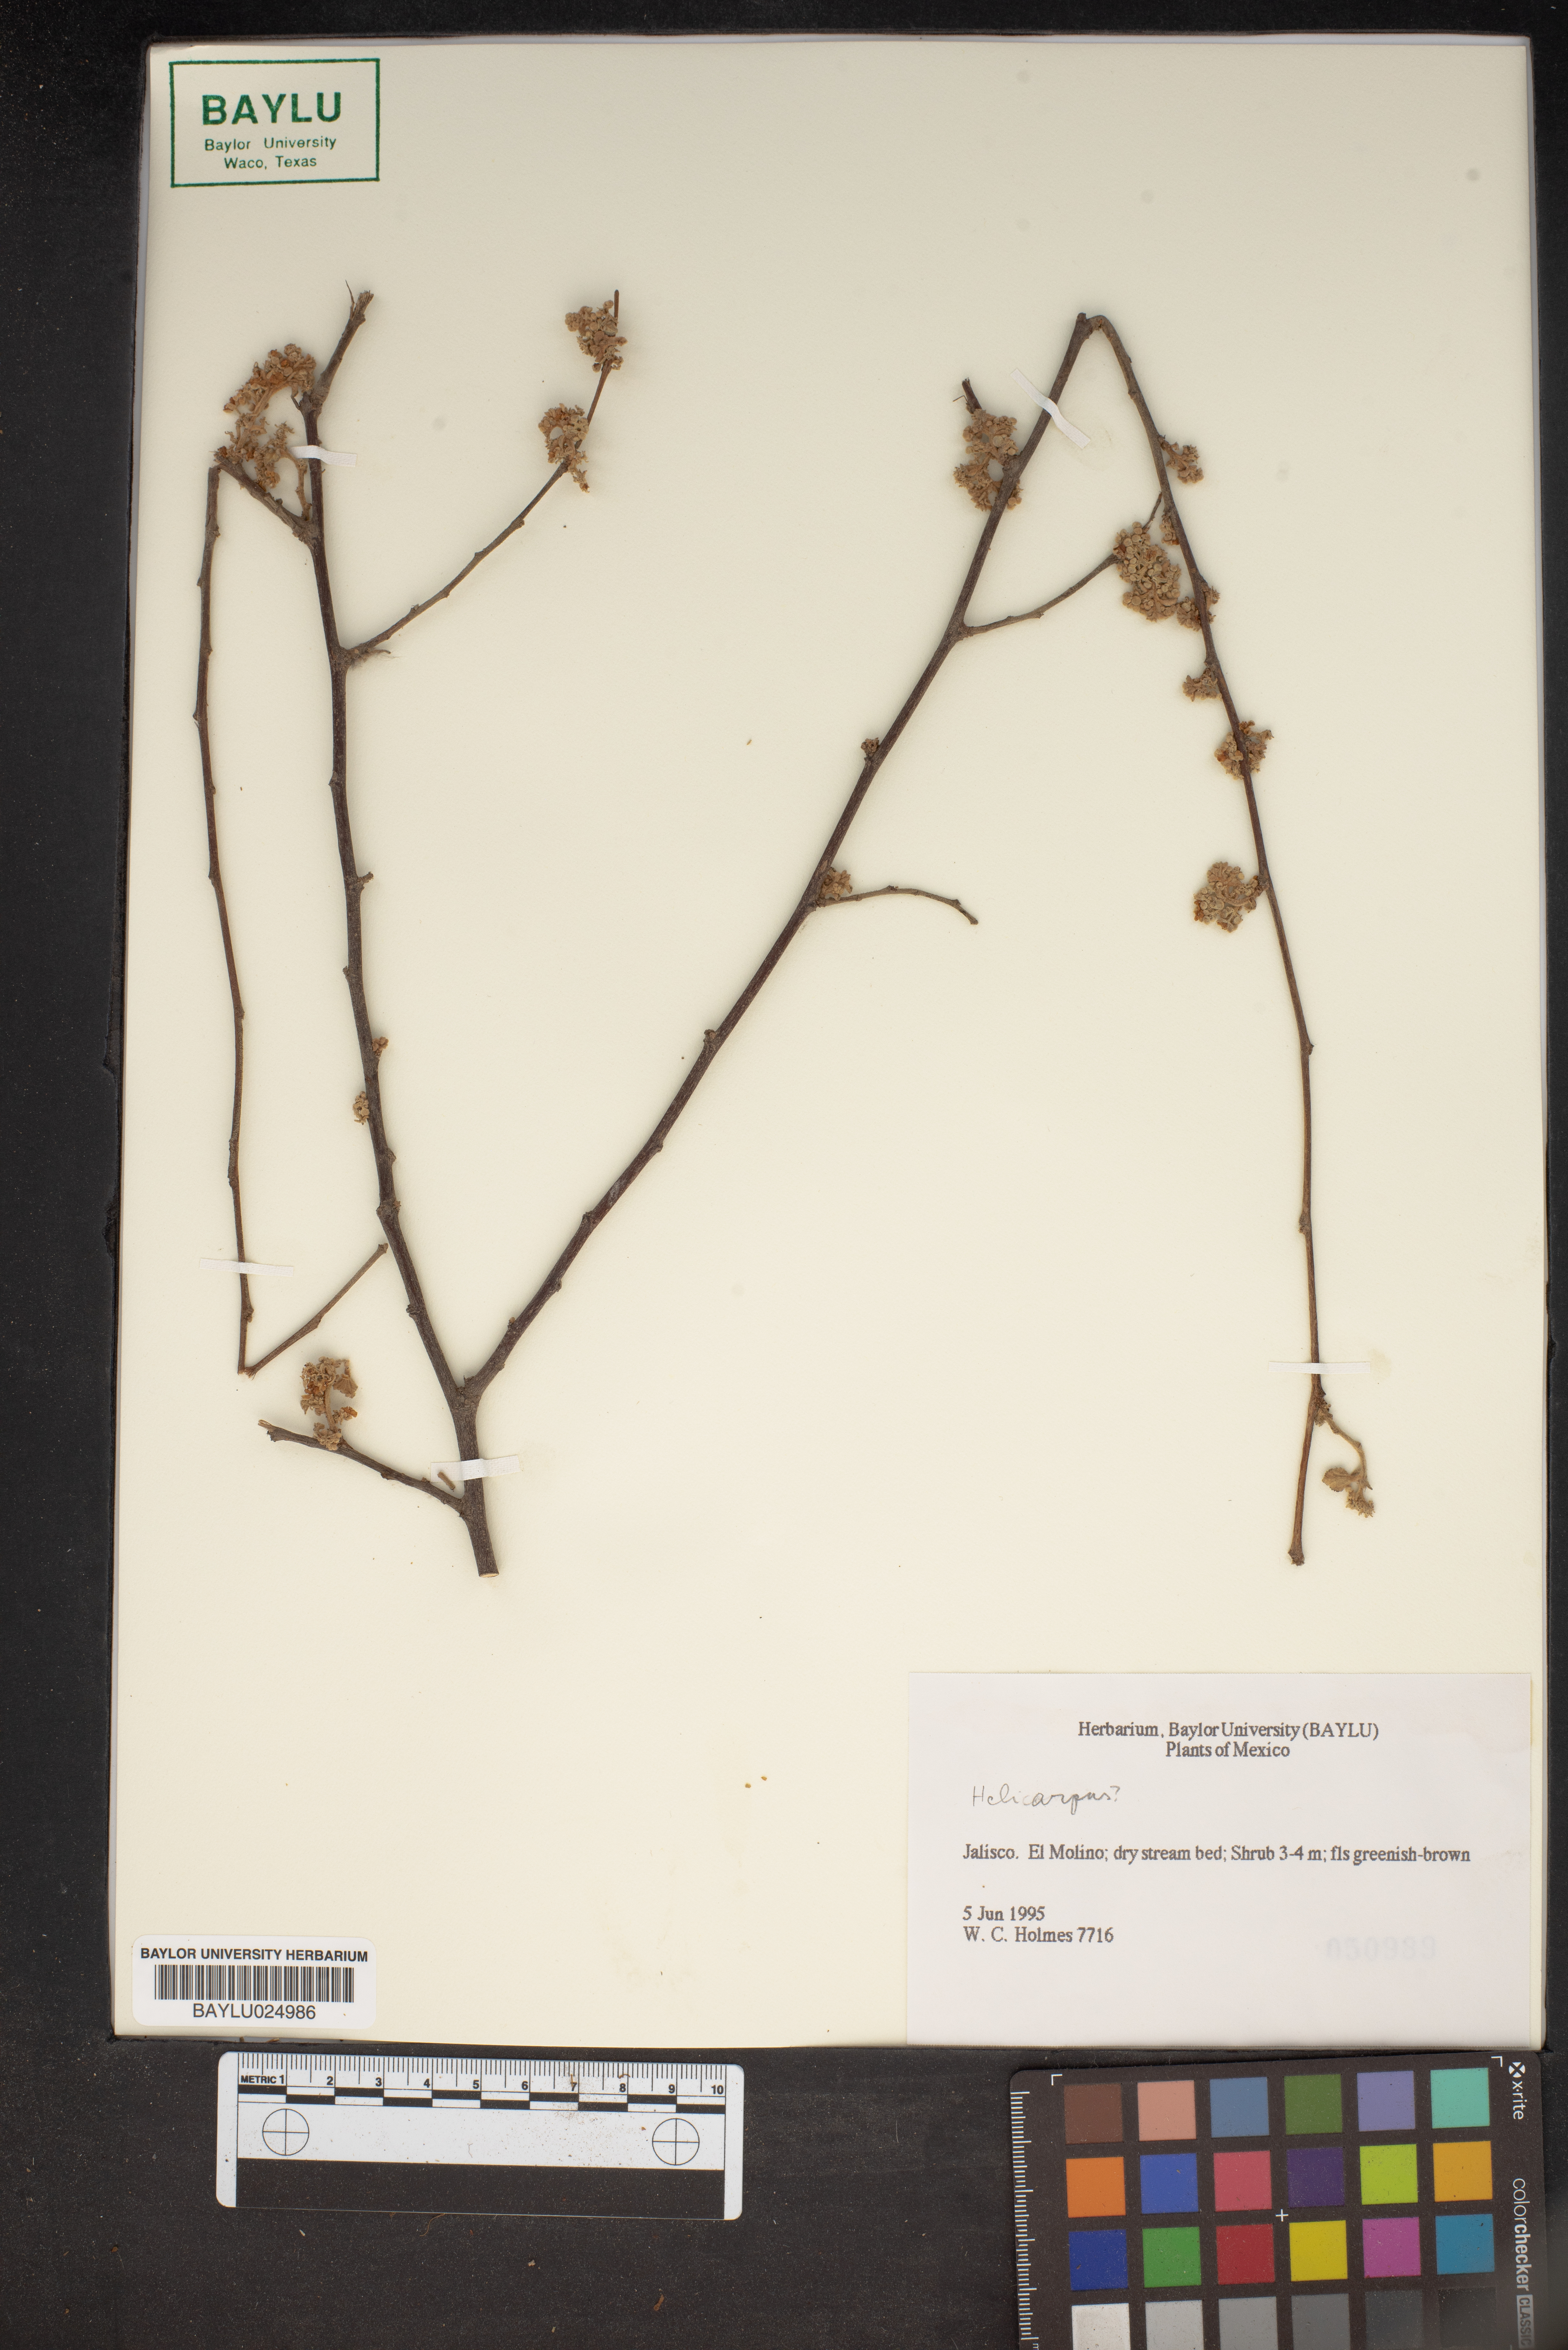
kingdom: Plantae
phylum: Tracheophyta
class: Magnoliopsida
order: Malvales
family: Malvaceae
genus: Heliocarpus
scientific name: Heliocarpus
